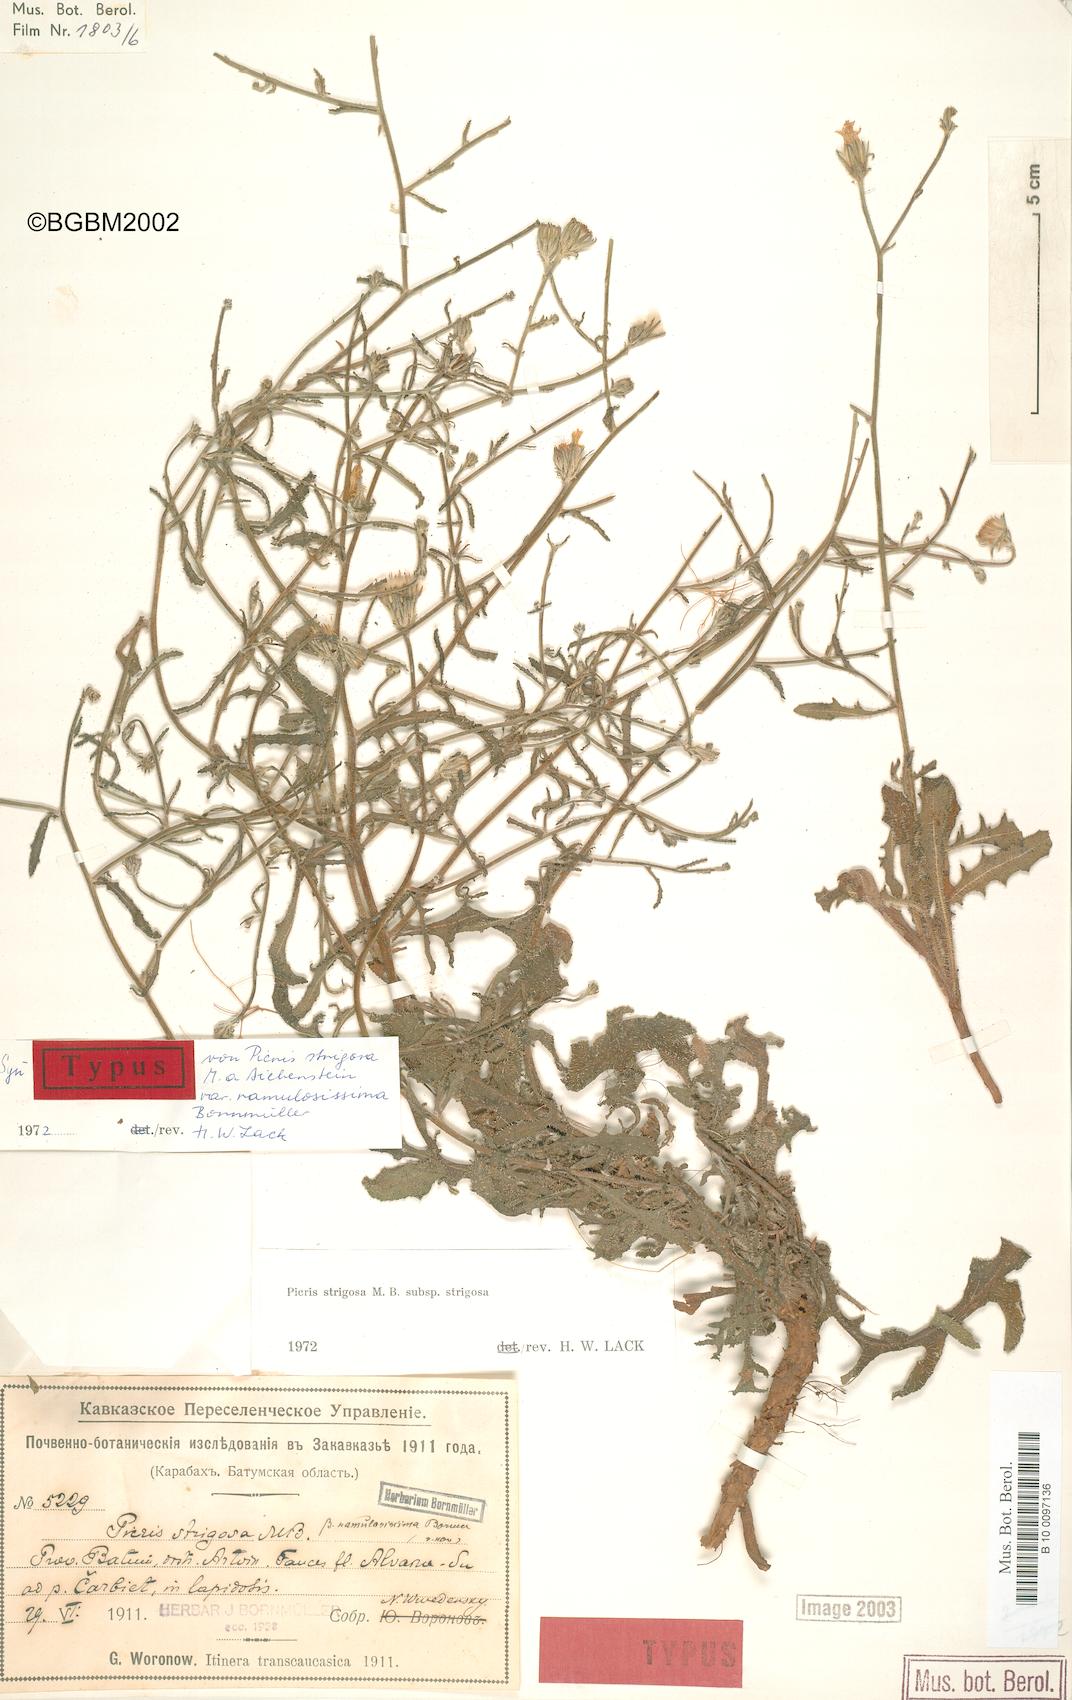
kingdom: Plantae
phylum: Tracheophyta
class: Magnoliopsida
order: Asterales
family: Asteraceae
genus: Picris
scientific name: Picris strigosa
